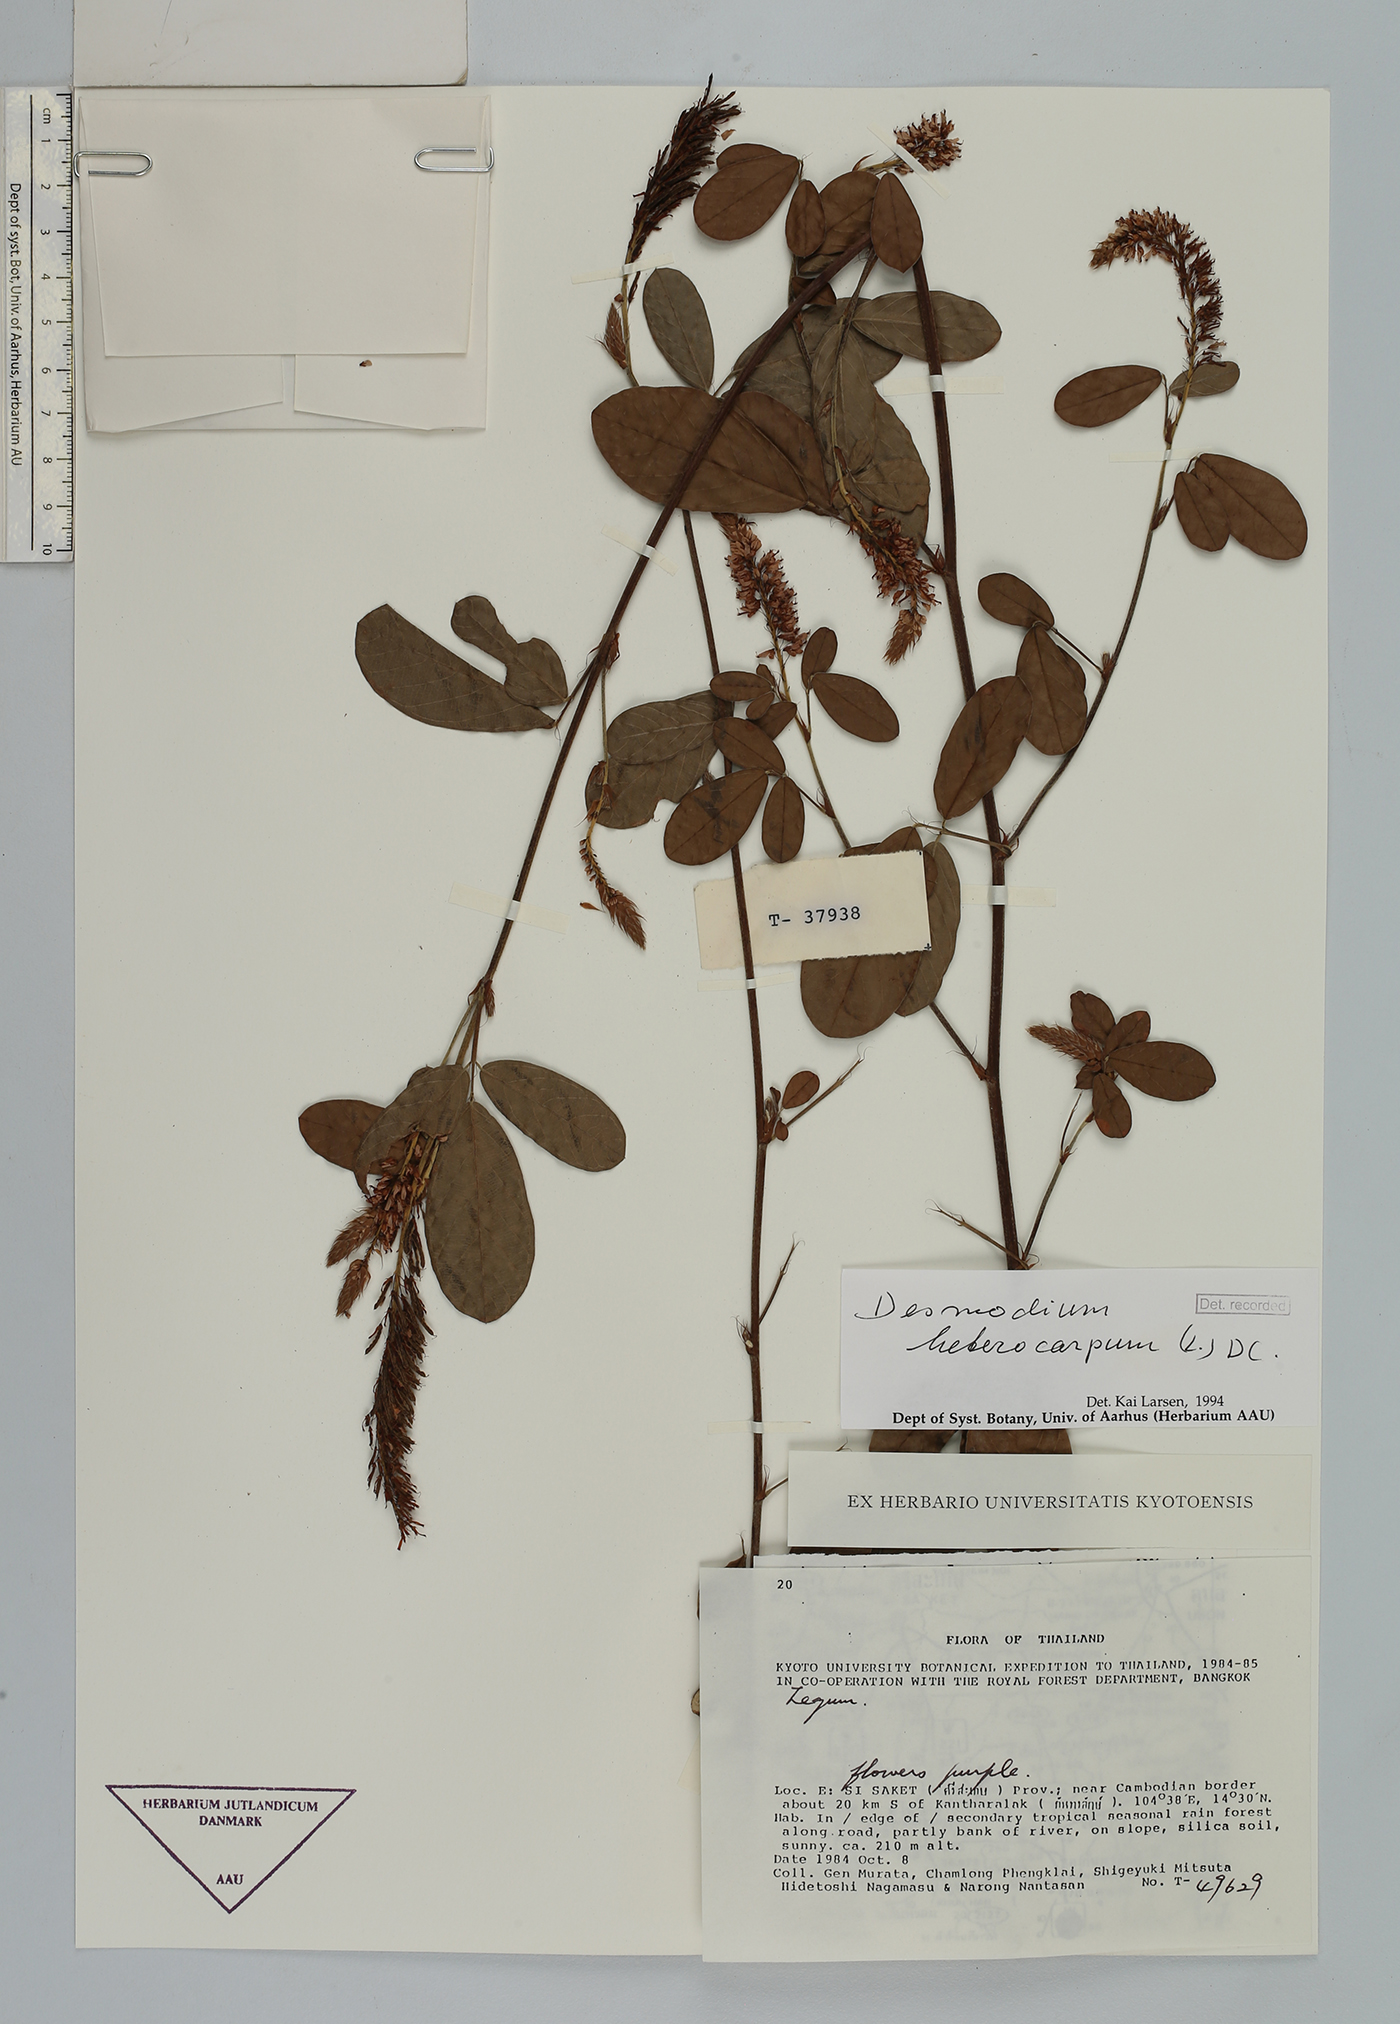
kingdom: Plantae
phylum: Tracheophyta
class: Magnoliopsida
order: Fabales
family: Fabaceae
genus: Grona
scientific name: Grona heterocarpos
